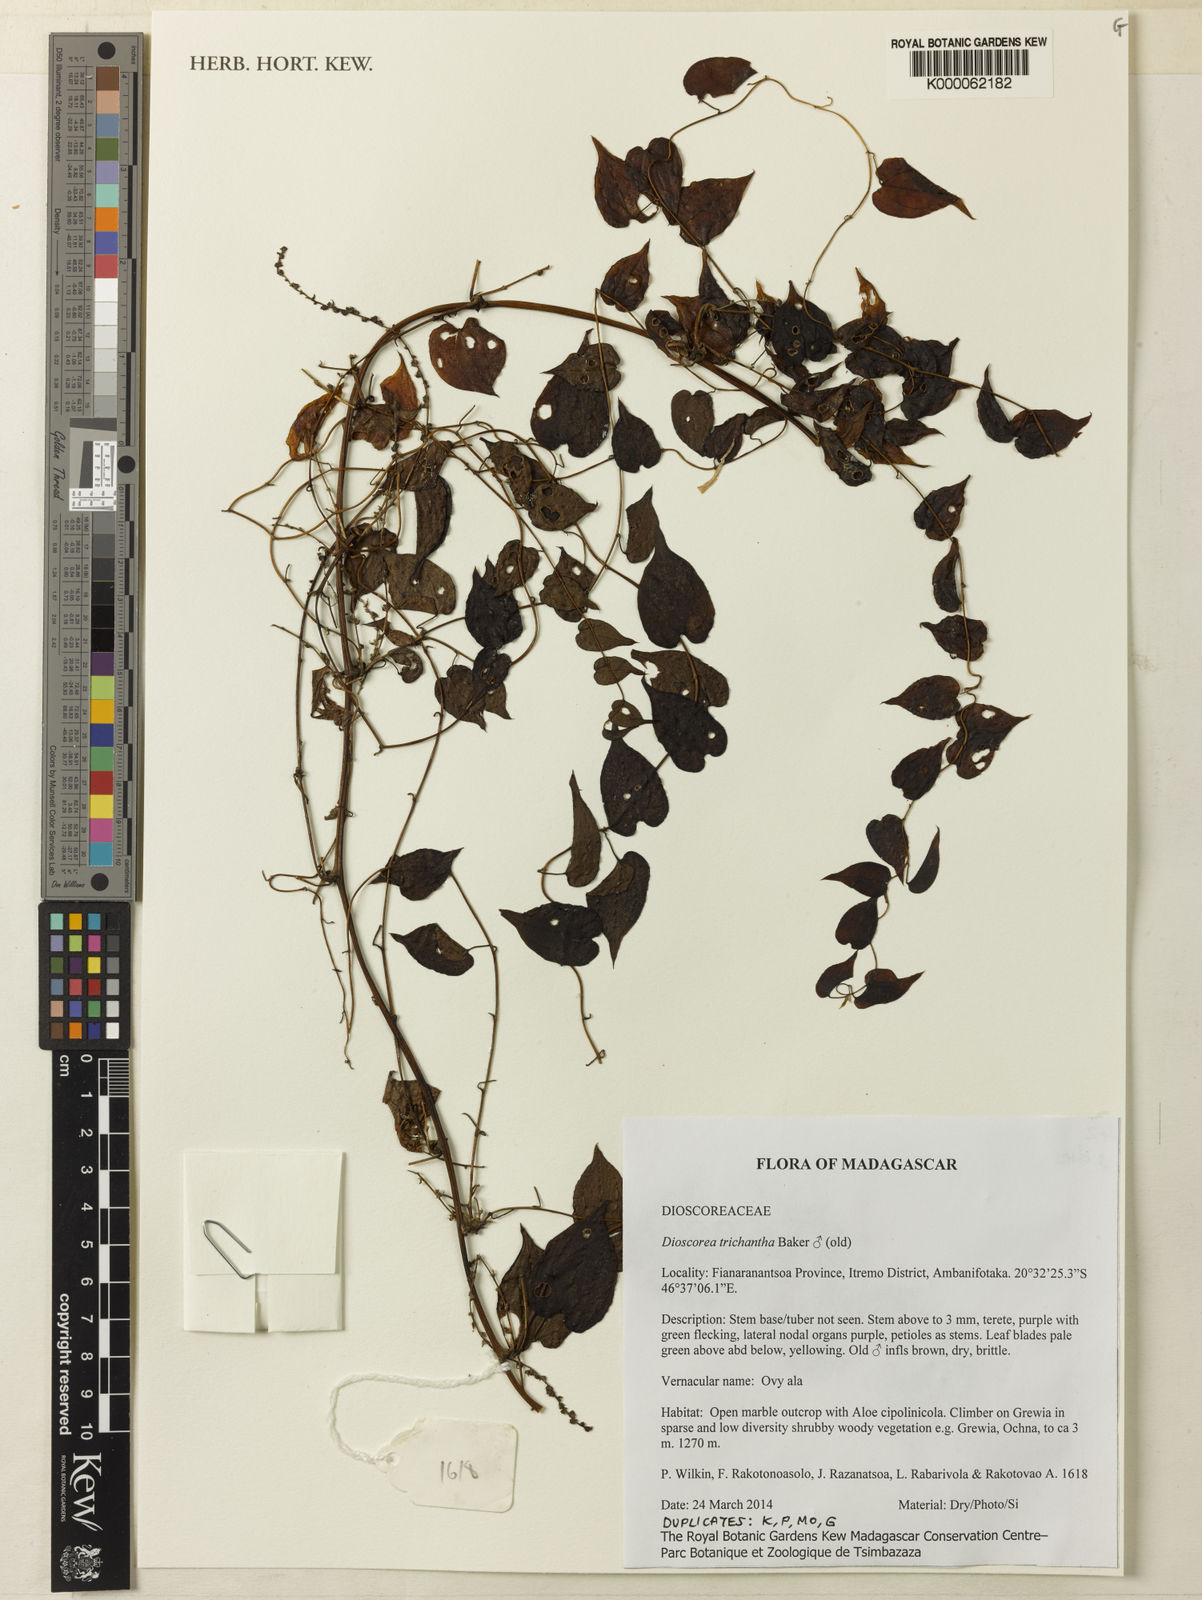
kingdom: Plantae
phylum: Tracheophyta
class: Liliopsida
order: Dioscoreales
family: Dioscoreaceae
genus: Dioscorea
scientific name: Dioscorea trichantha
